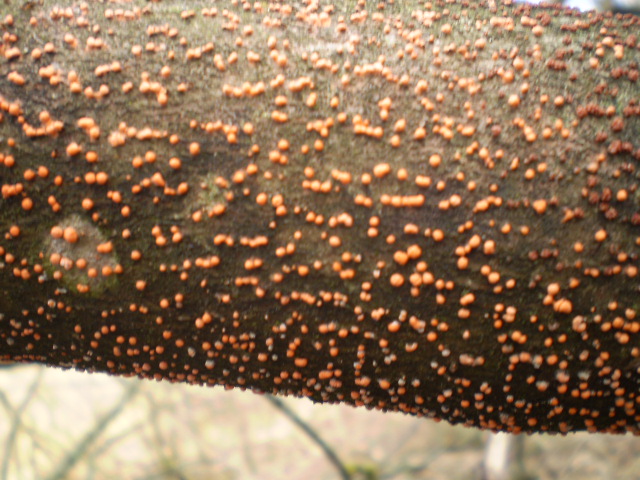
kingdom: Fungi
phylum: Ascomycota
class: Sordariomycetes
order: Hypocreales
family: Nectriaceae
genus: Nectria
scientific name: Nectria cinnabarina
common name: almindelig cinnobersvamp
